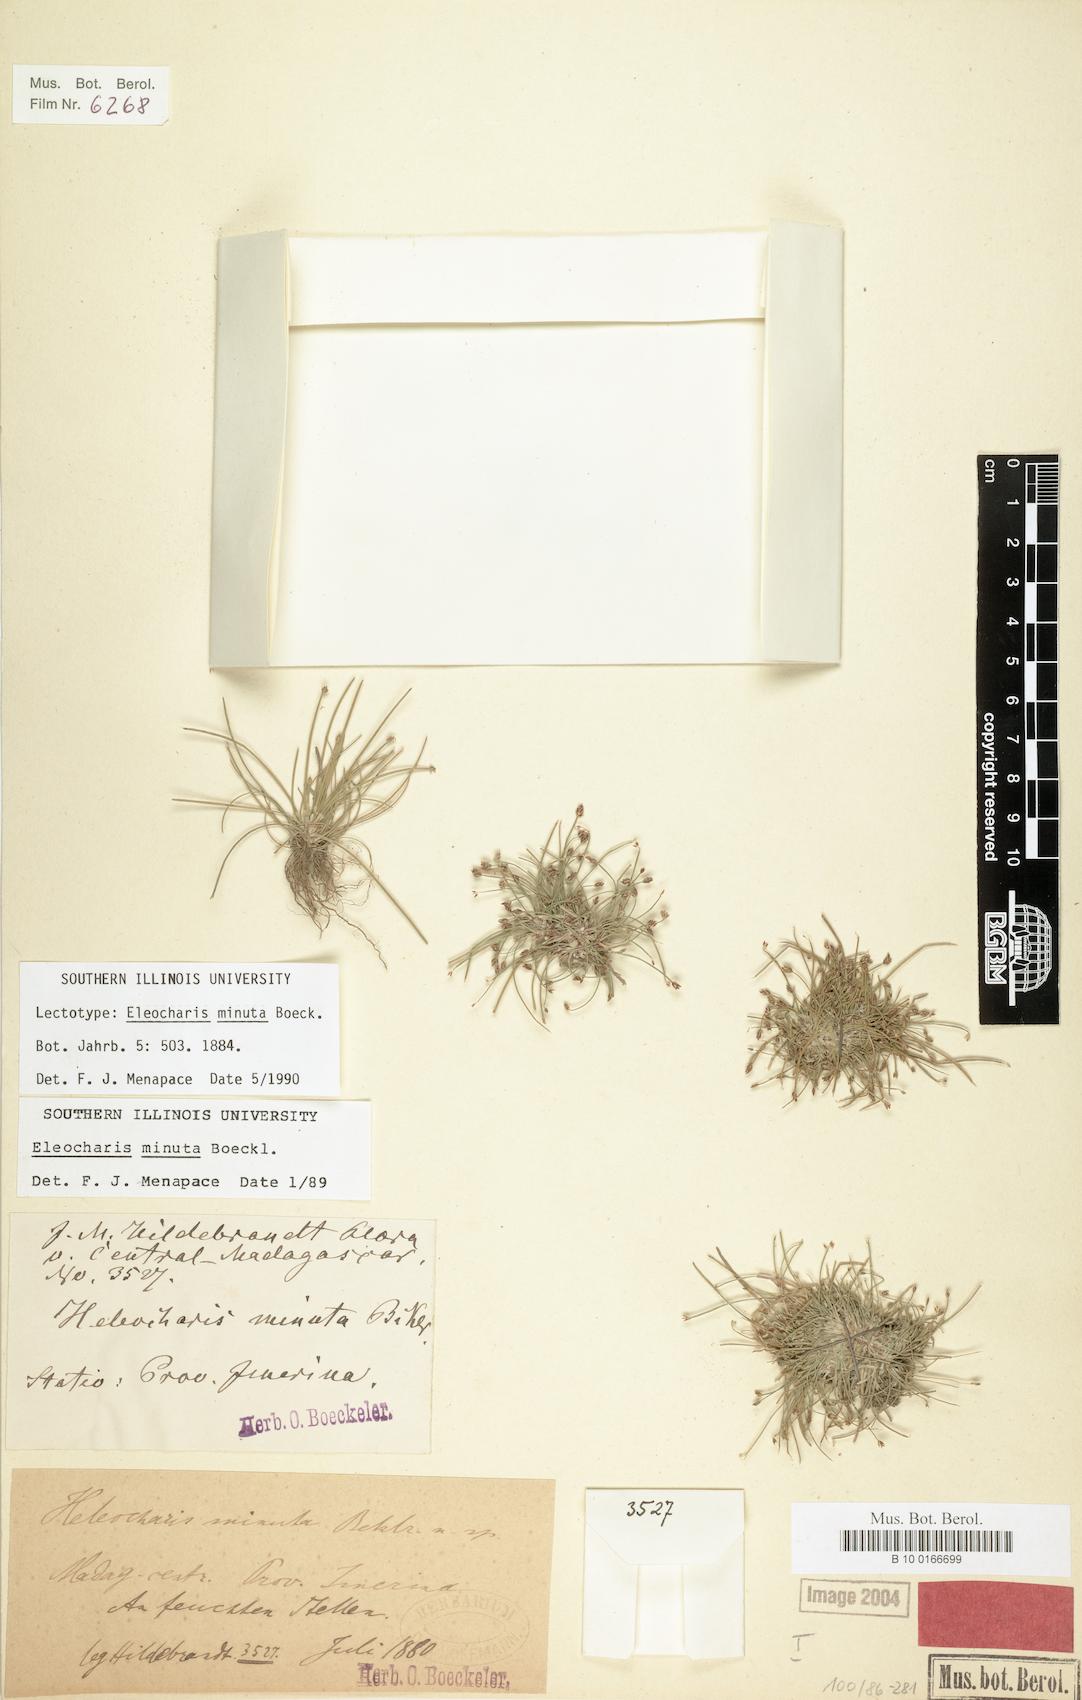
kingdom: Plantae
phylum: Tracheophyta
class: Liliopsida
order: Poales
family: Cyperaceae
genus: Eleocharis
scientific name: Eleocharis minuta
